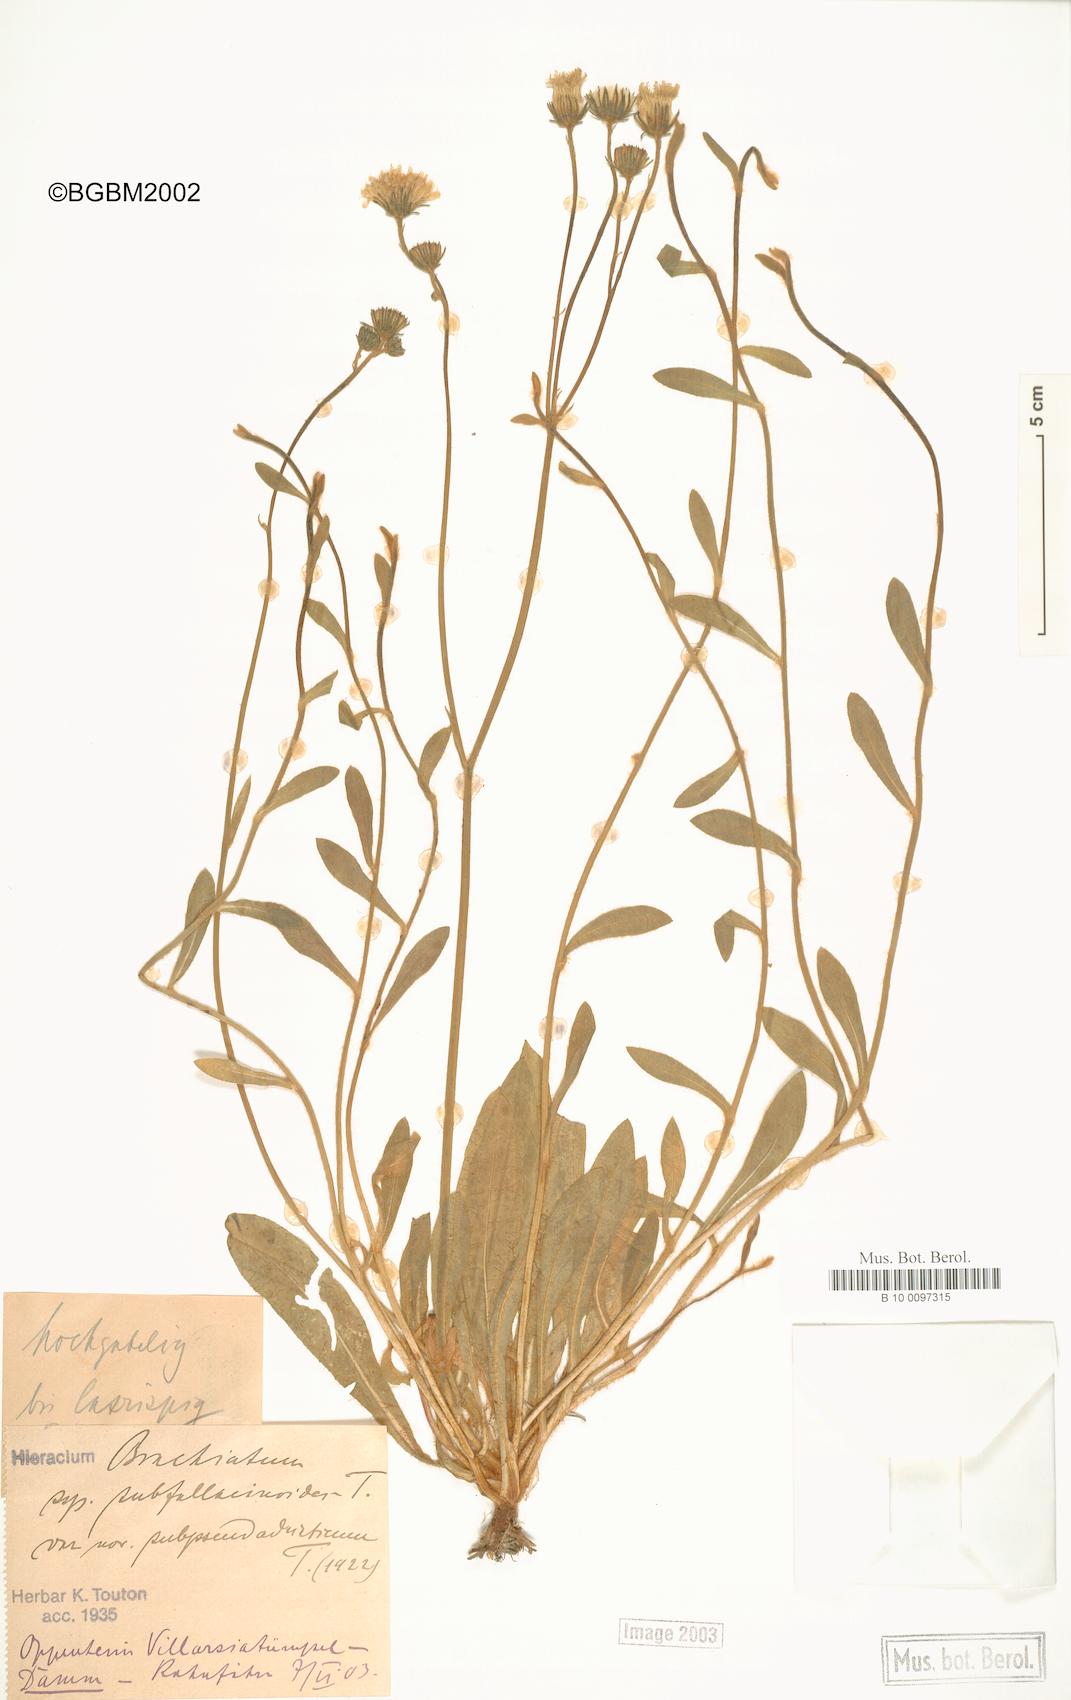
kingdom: Plantae
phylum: Tracheophyta
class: Magnoliopsida
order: Asterales
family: Asteraceae
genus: Pilosella
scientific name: Pilosella acutifolia
